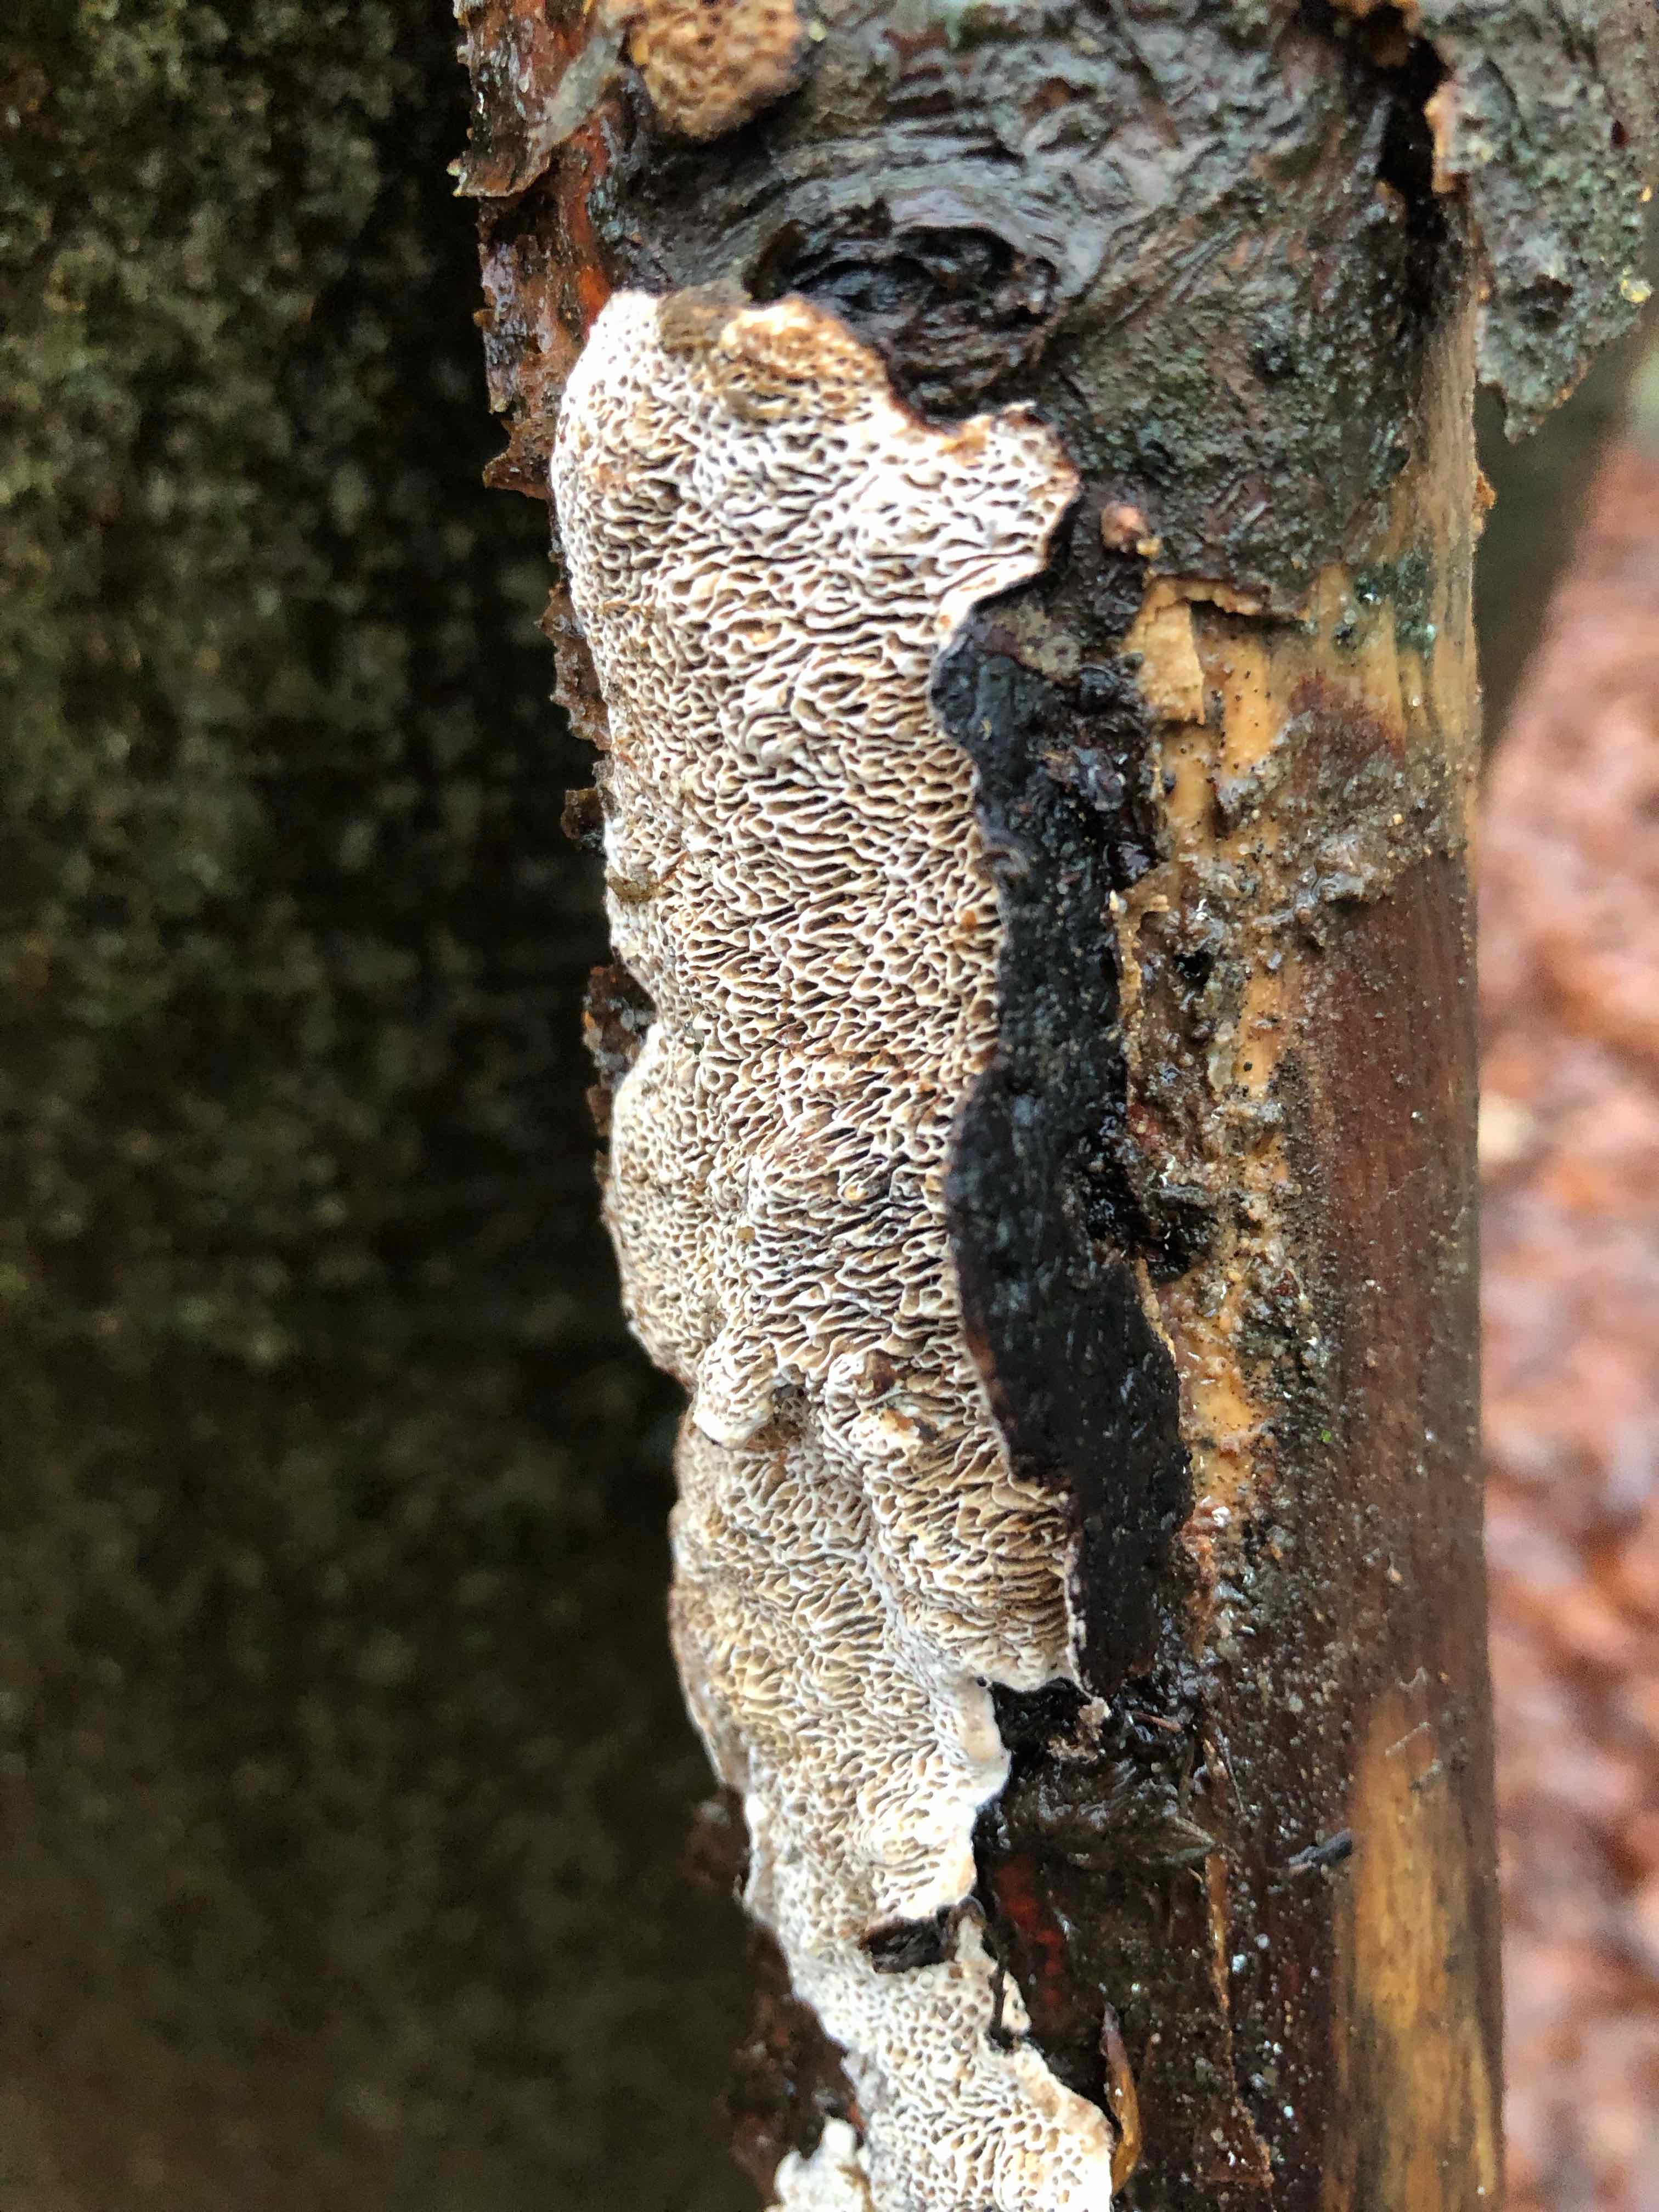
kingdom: Fungi
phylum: Basidiomycota
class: Agaricomycetes
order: Polyporales
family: Polyporaceae
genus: Podofomes
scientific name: Podofomes mollis
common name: blød begporesvamp
